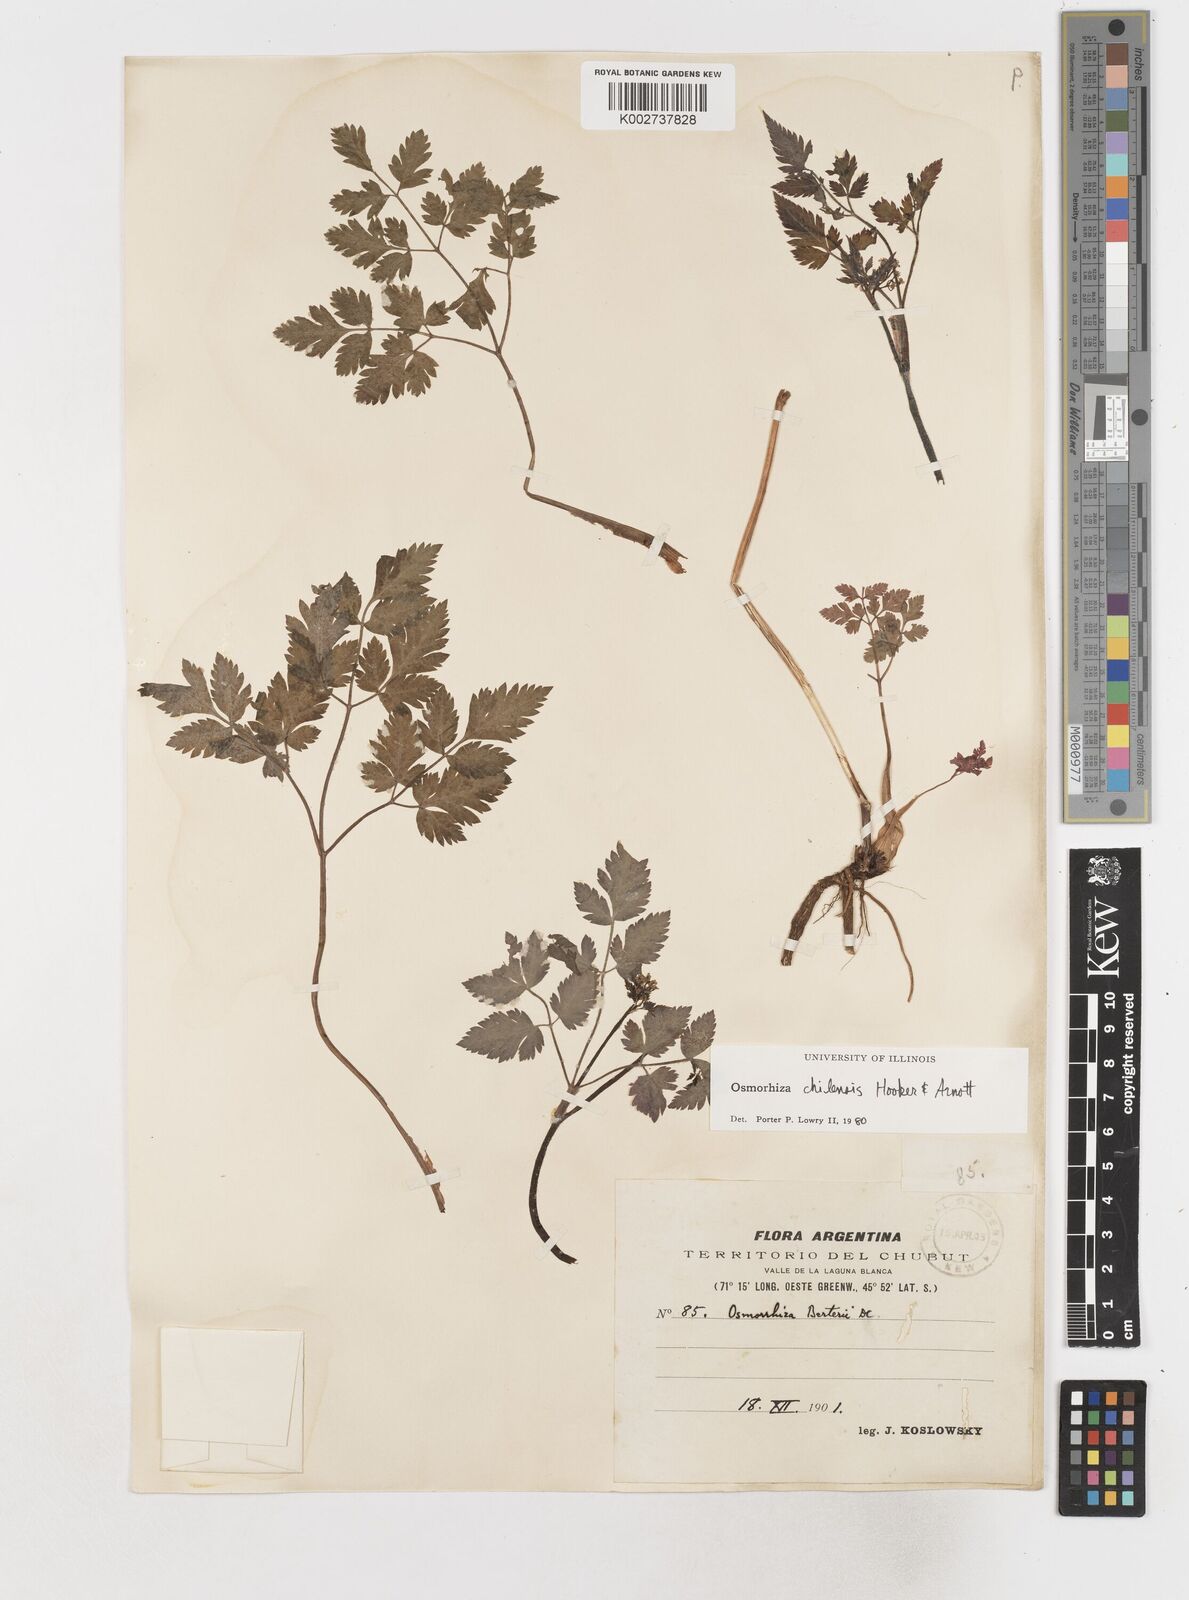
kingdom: Plantae
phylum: Tracheophyta
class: Magnoliopsida
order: Apiales
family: Apiaceae
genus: Osmorhiza
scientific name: Osmorhiza berteroi
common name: Mountain sweet cicely
